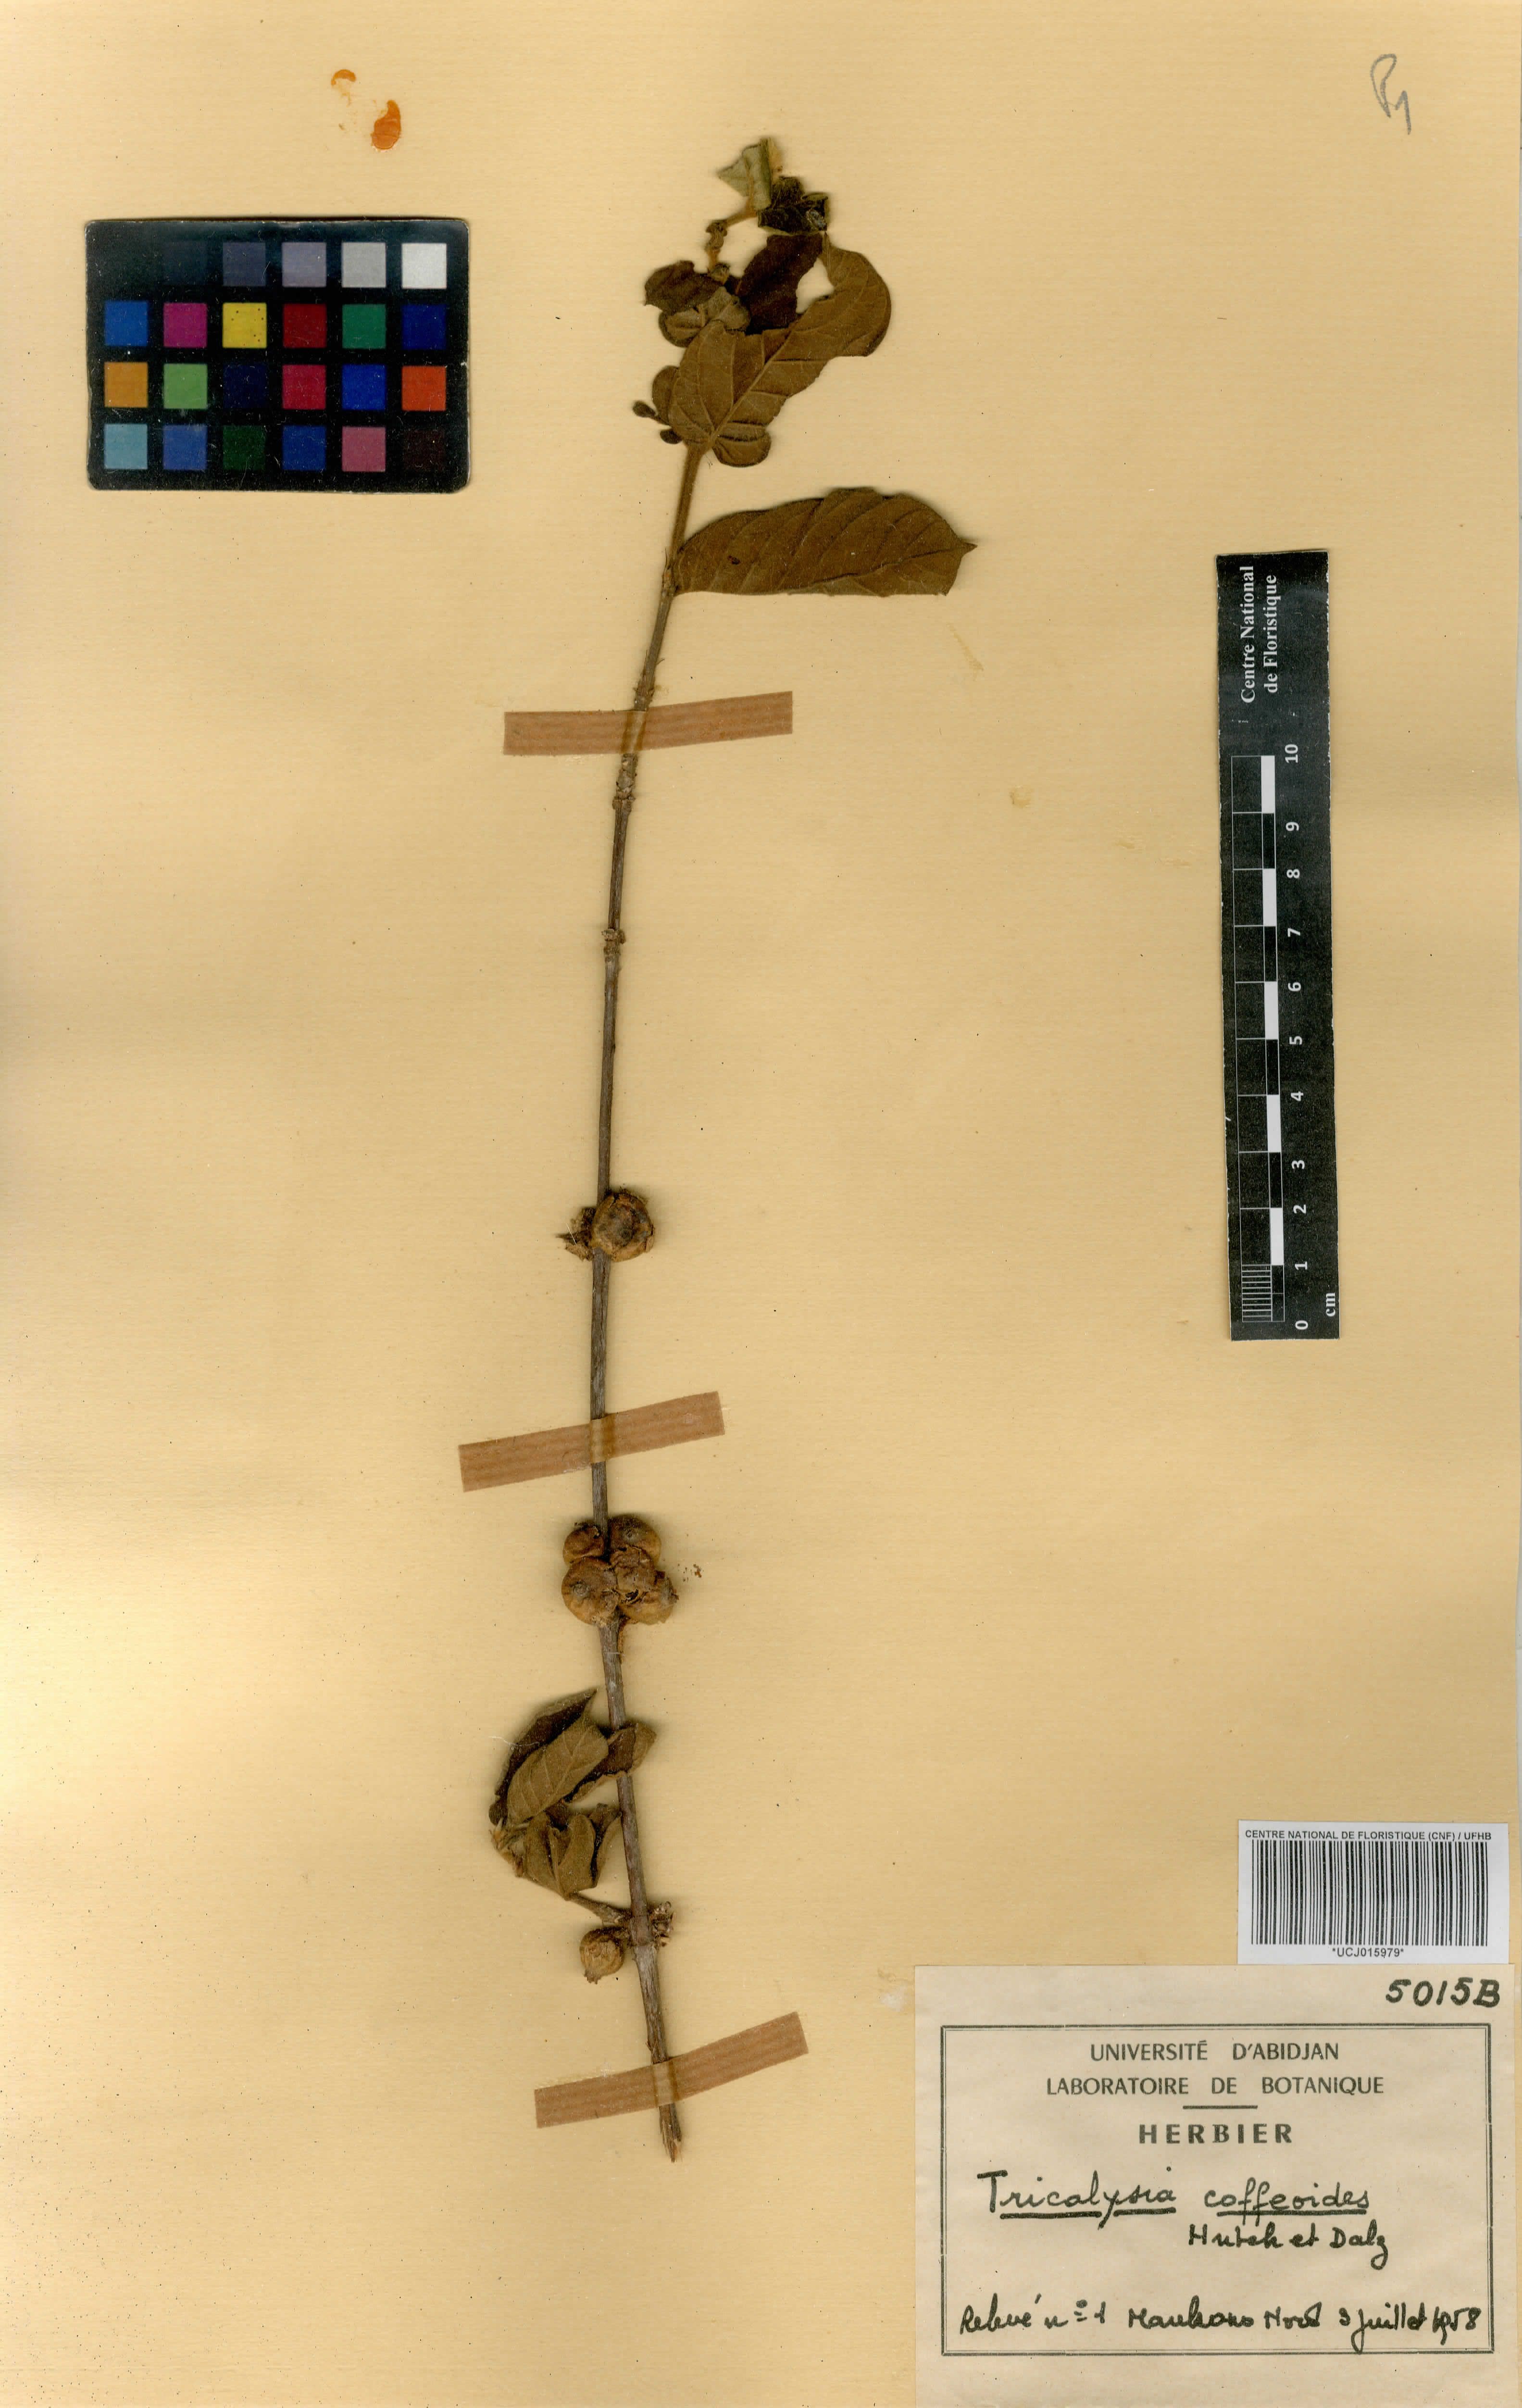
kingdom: Plantae
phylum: Tracheophyta
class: Magnoliopsida
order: Gentianales
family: Rubiaceae
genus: Sericanthe
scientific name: Sericanthe chevalieri
